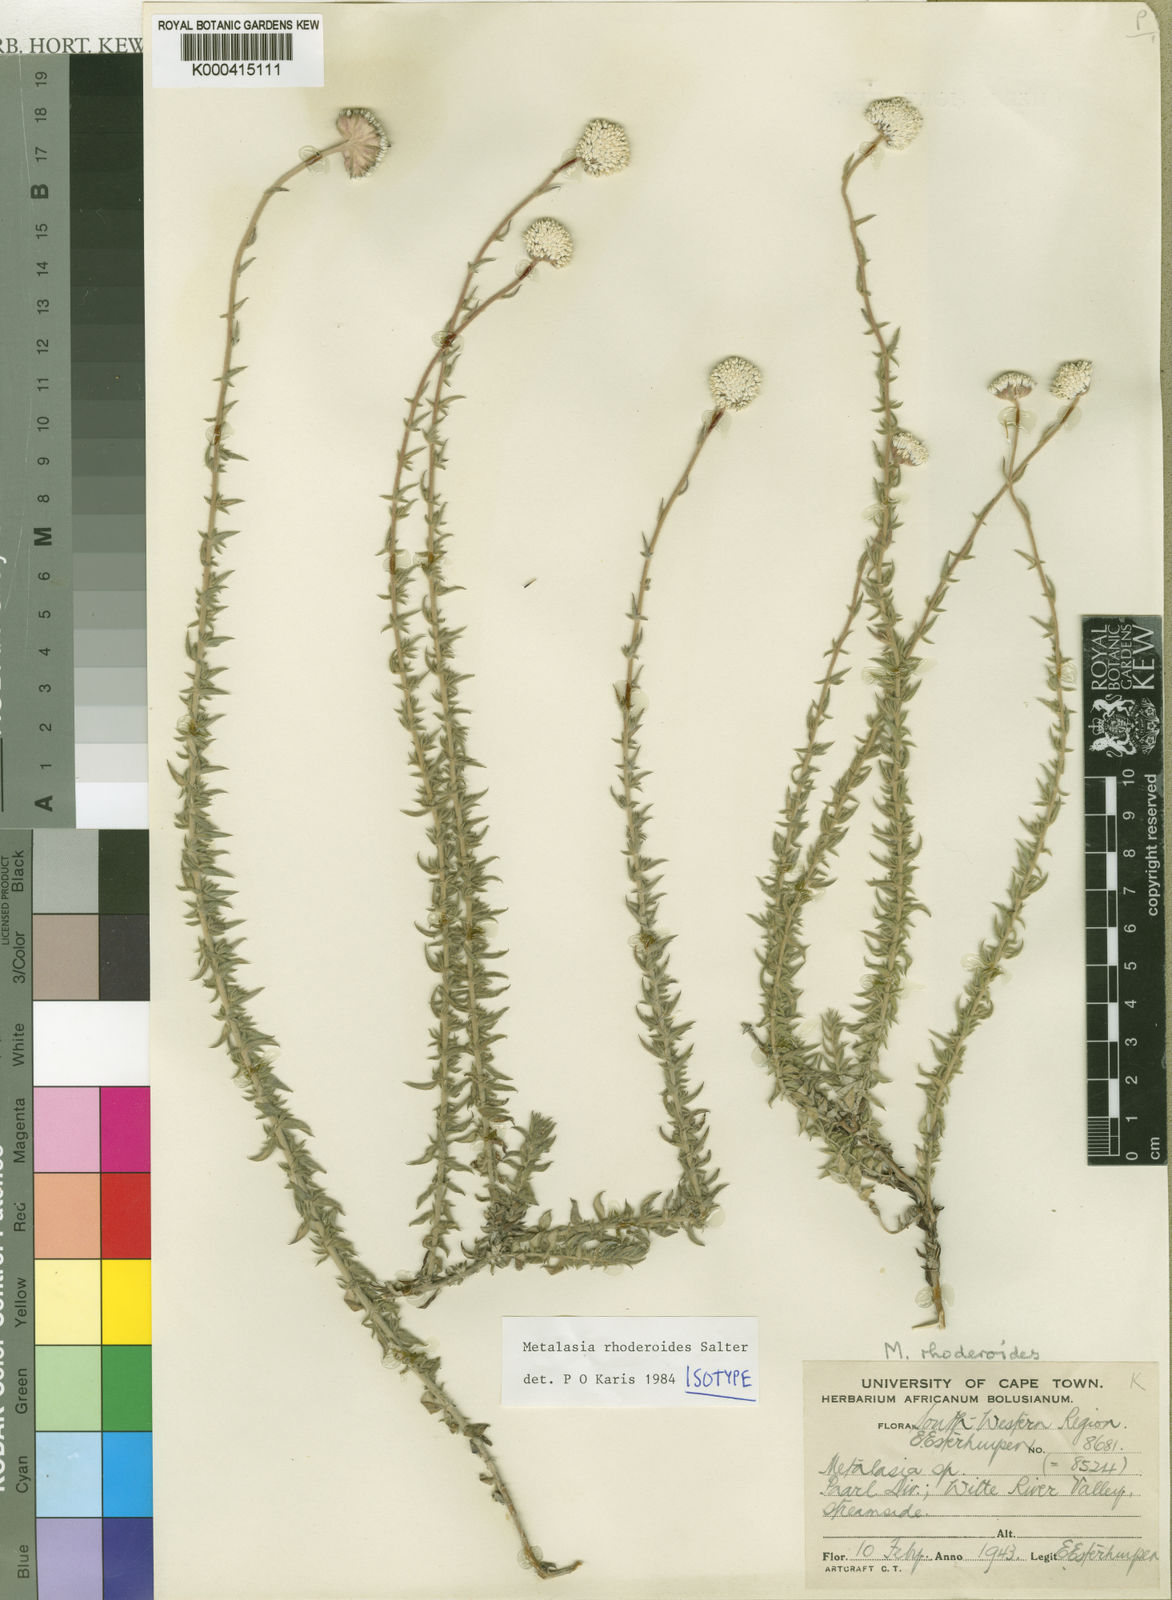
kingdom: Plantae
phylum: Tracheophyta
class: Magnoliopsida
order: Asterales
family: Asteraceae
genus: Metalasia
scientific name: Metalasia rhoderiodes
